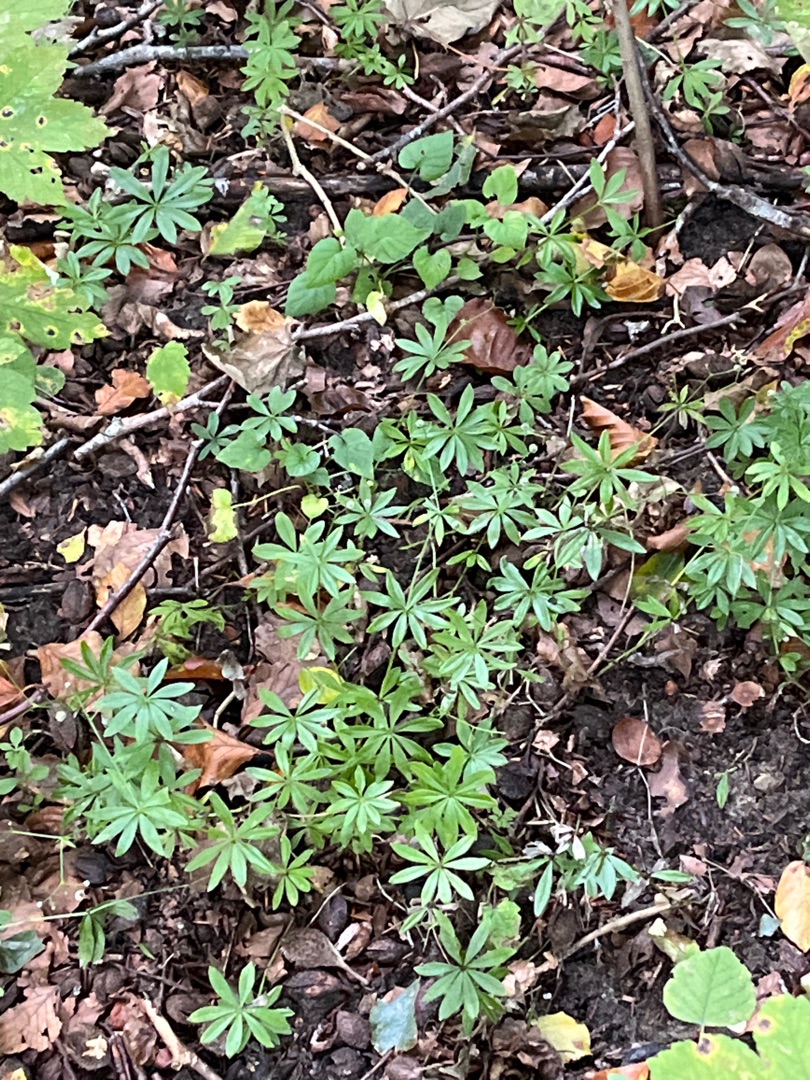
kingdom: Plantae
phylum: Tracheophyta
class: Magnoliopsida
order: Gentianales
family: Rubiaceae
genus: Galium
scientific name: Galium odoratum
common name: Skovmærke
